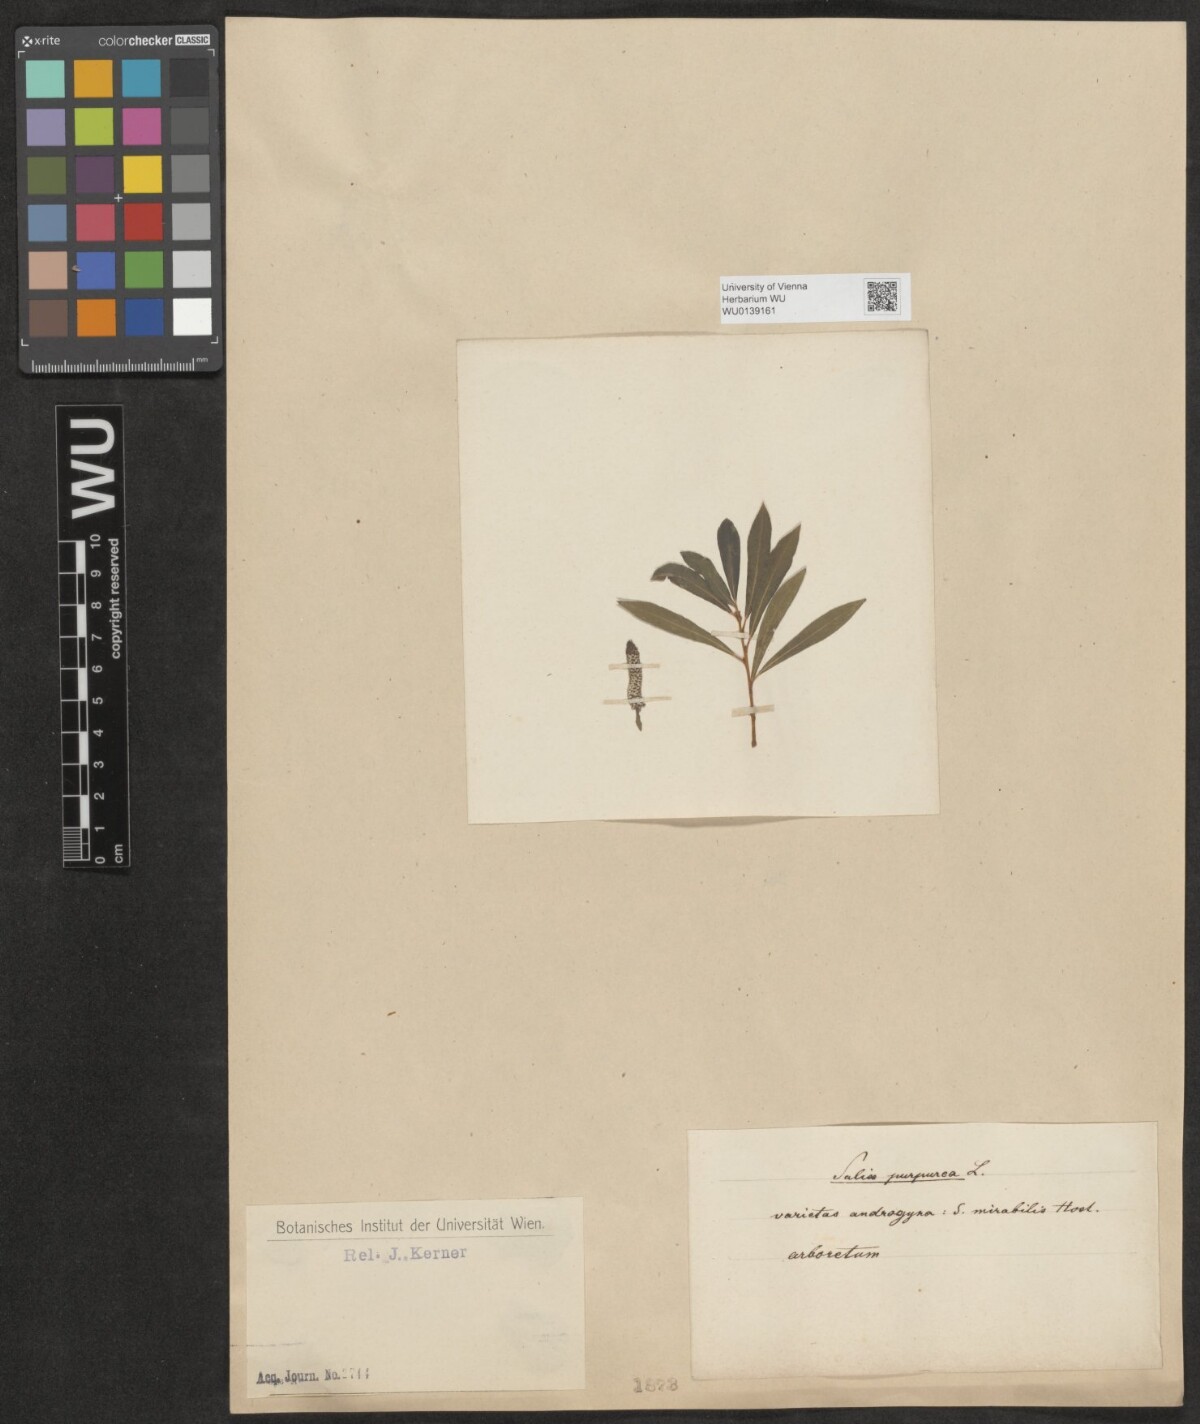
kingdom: Plantae
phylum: Tracheophyta
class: Magnoliopsida
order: Malpighiales
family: Salicaceae
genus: Salix
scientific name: Salix purpurea
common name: Purple willow
